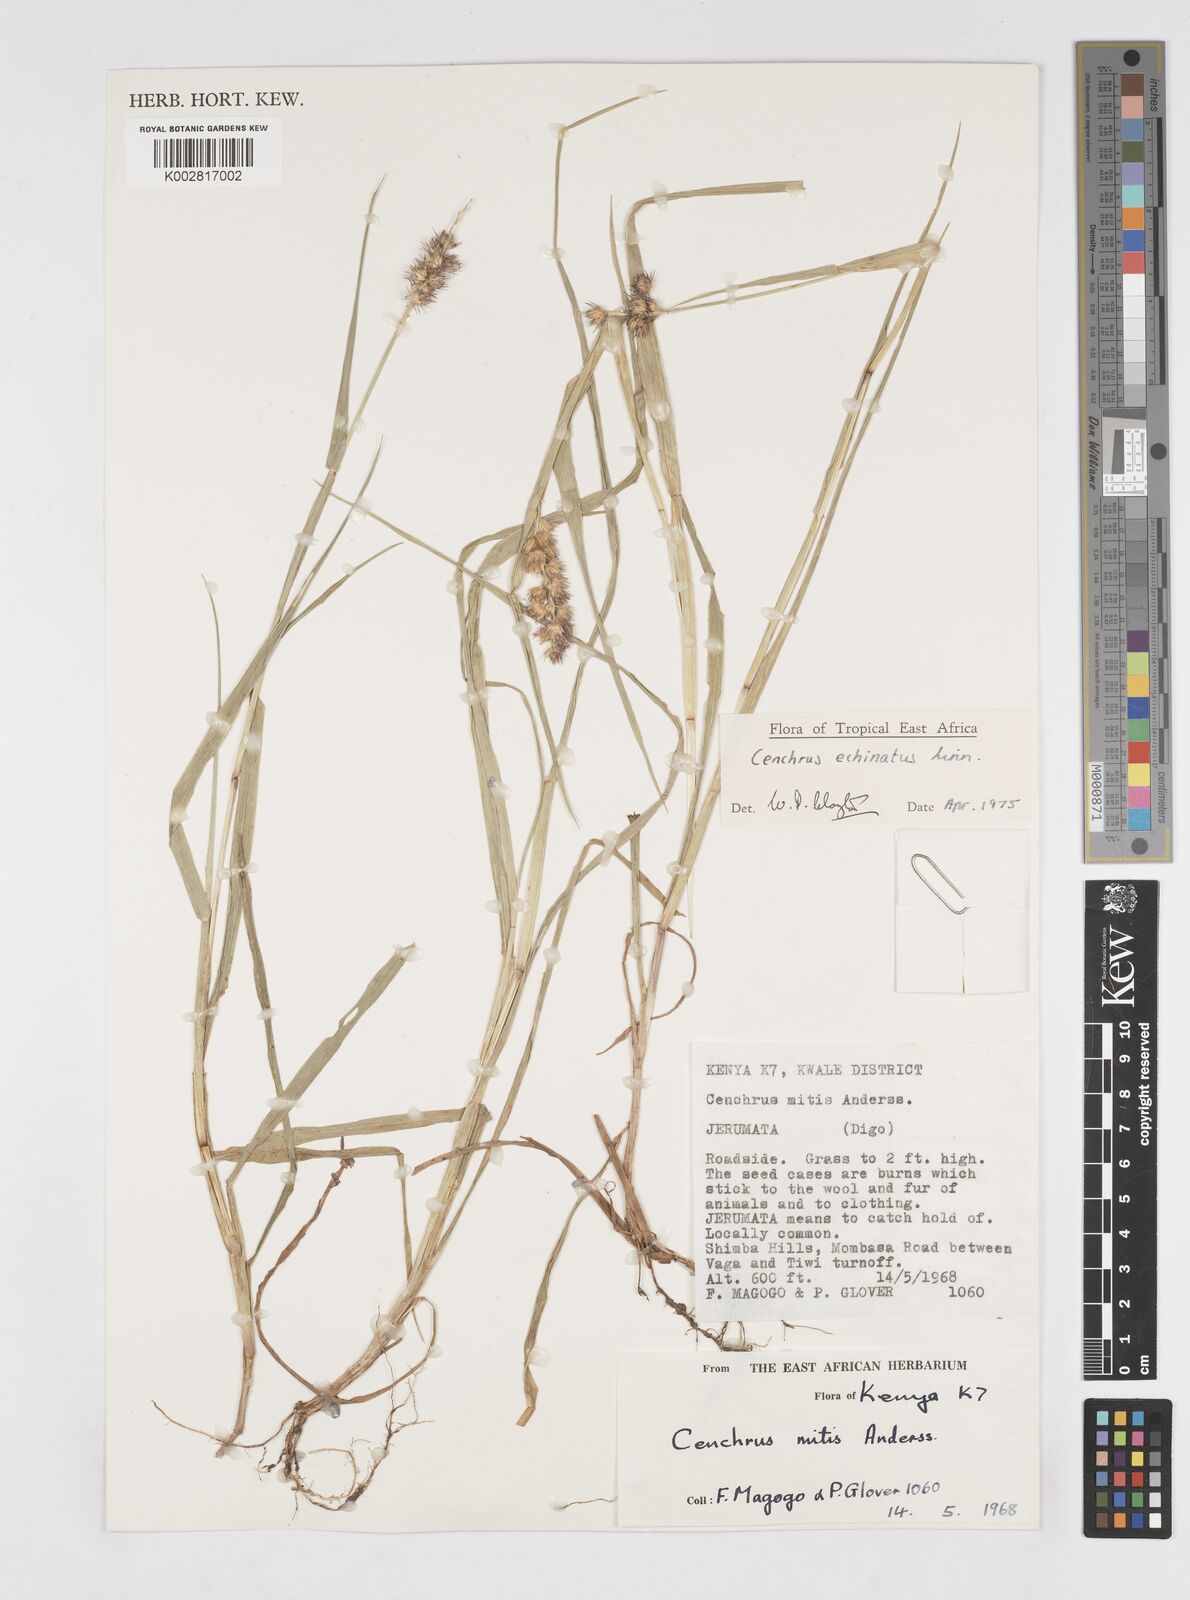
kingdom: Plantae
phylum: Tracheophyta
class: Liliopsida
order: Poales
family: Poaceae
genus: Cenchrus
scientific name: Cenchrus echinatus
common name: Southern sandbur
